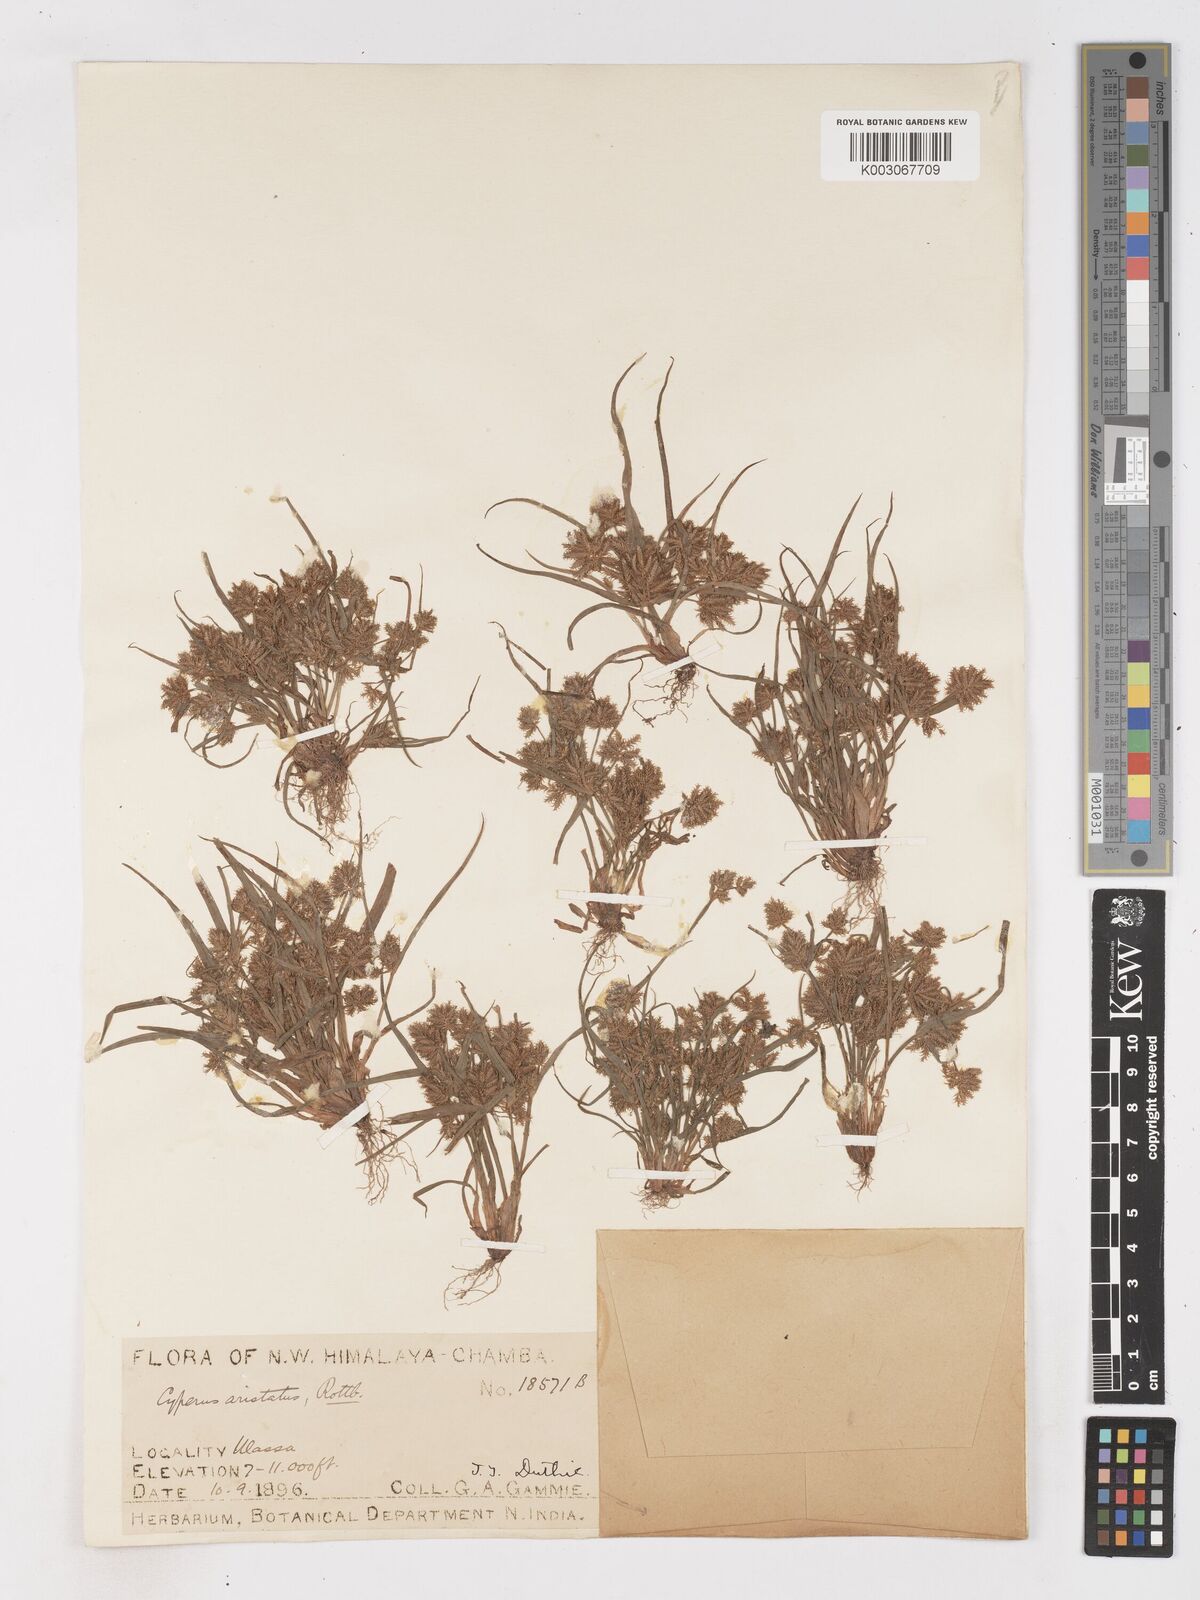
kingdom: Plantae
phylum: Tracheophyta
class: Liliopsida
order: Poales
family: Cyperaceae
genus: Cyperus
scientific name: Cyperus squarrosus
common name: Awned cyperus
